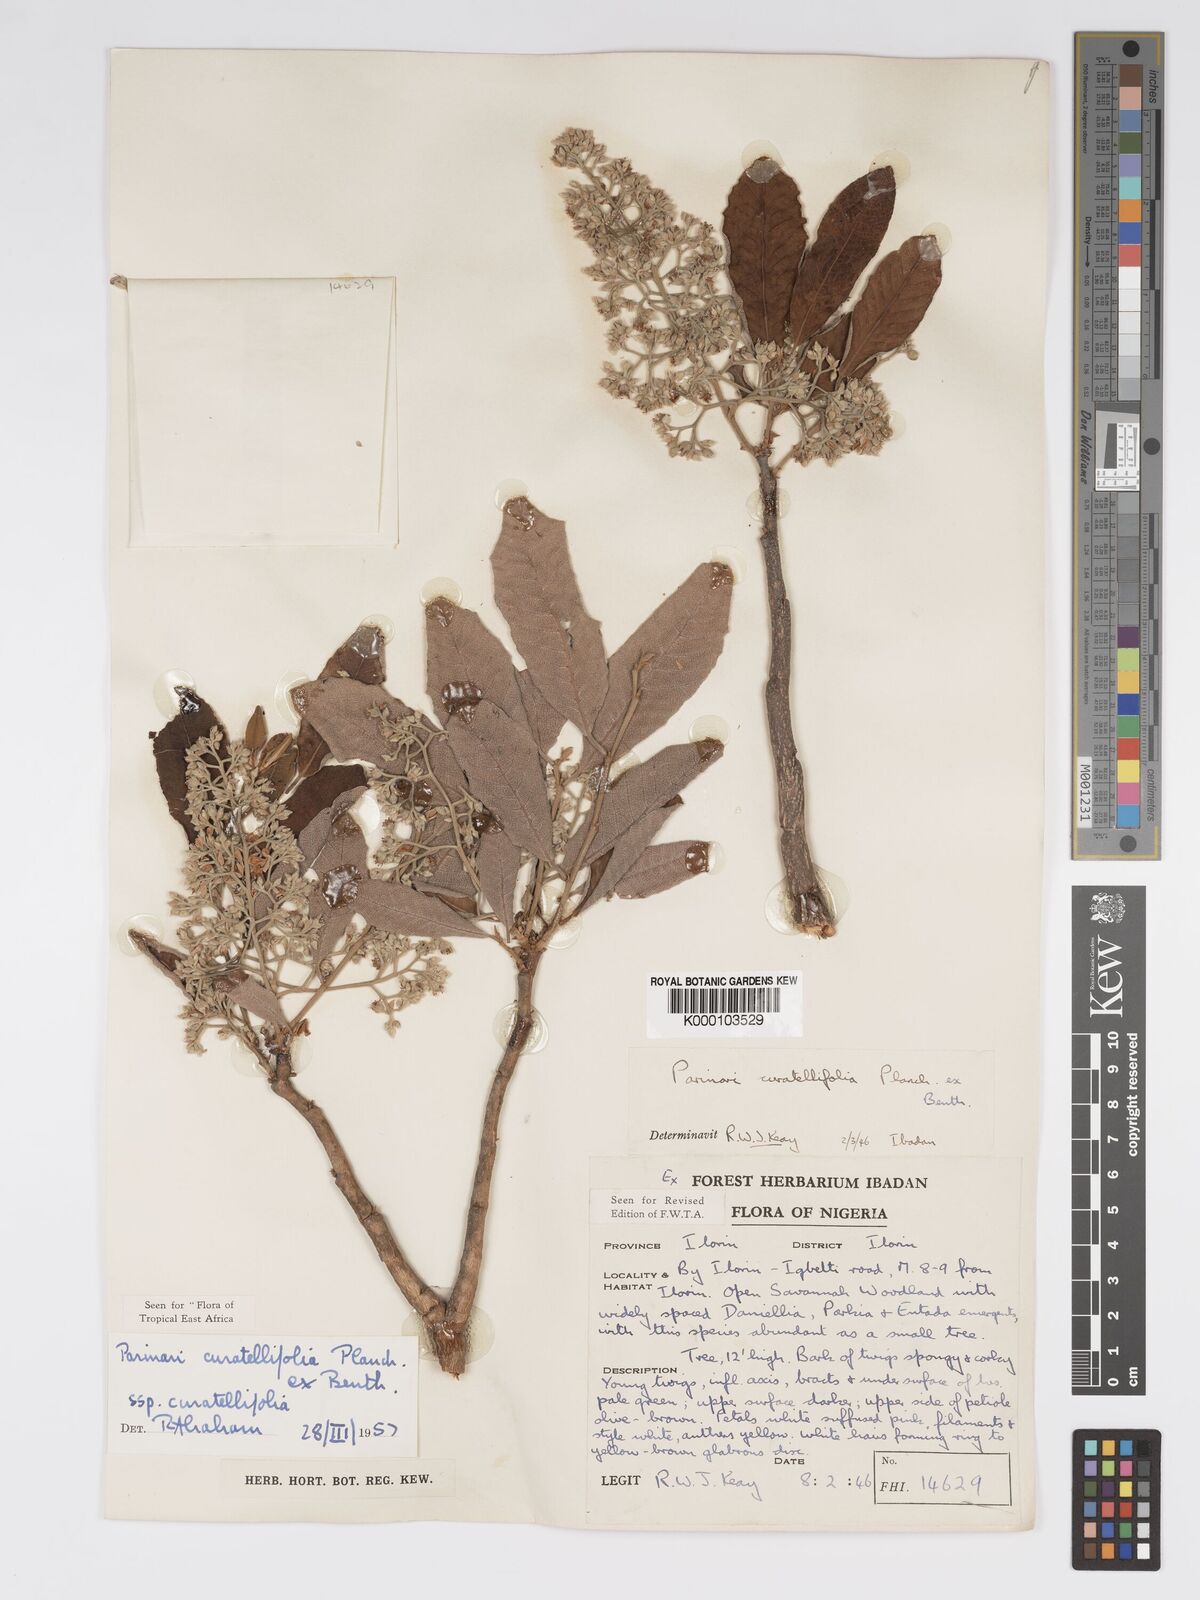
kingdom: Plantae
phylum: Tracheophyta
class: Magnoliopsida
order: Malpighiales
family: Chrysobalanaceae
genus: Parinari
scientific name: Parinari curatellifolia
